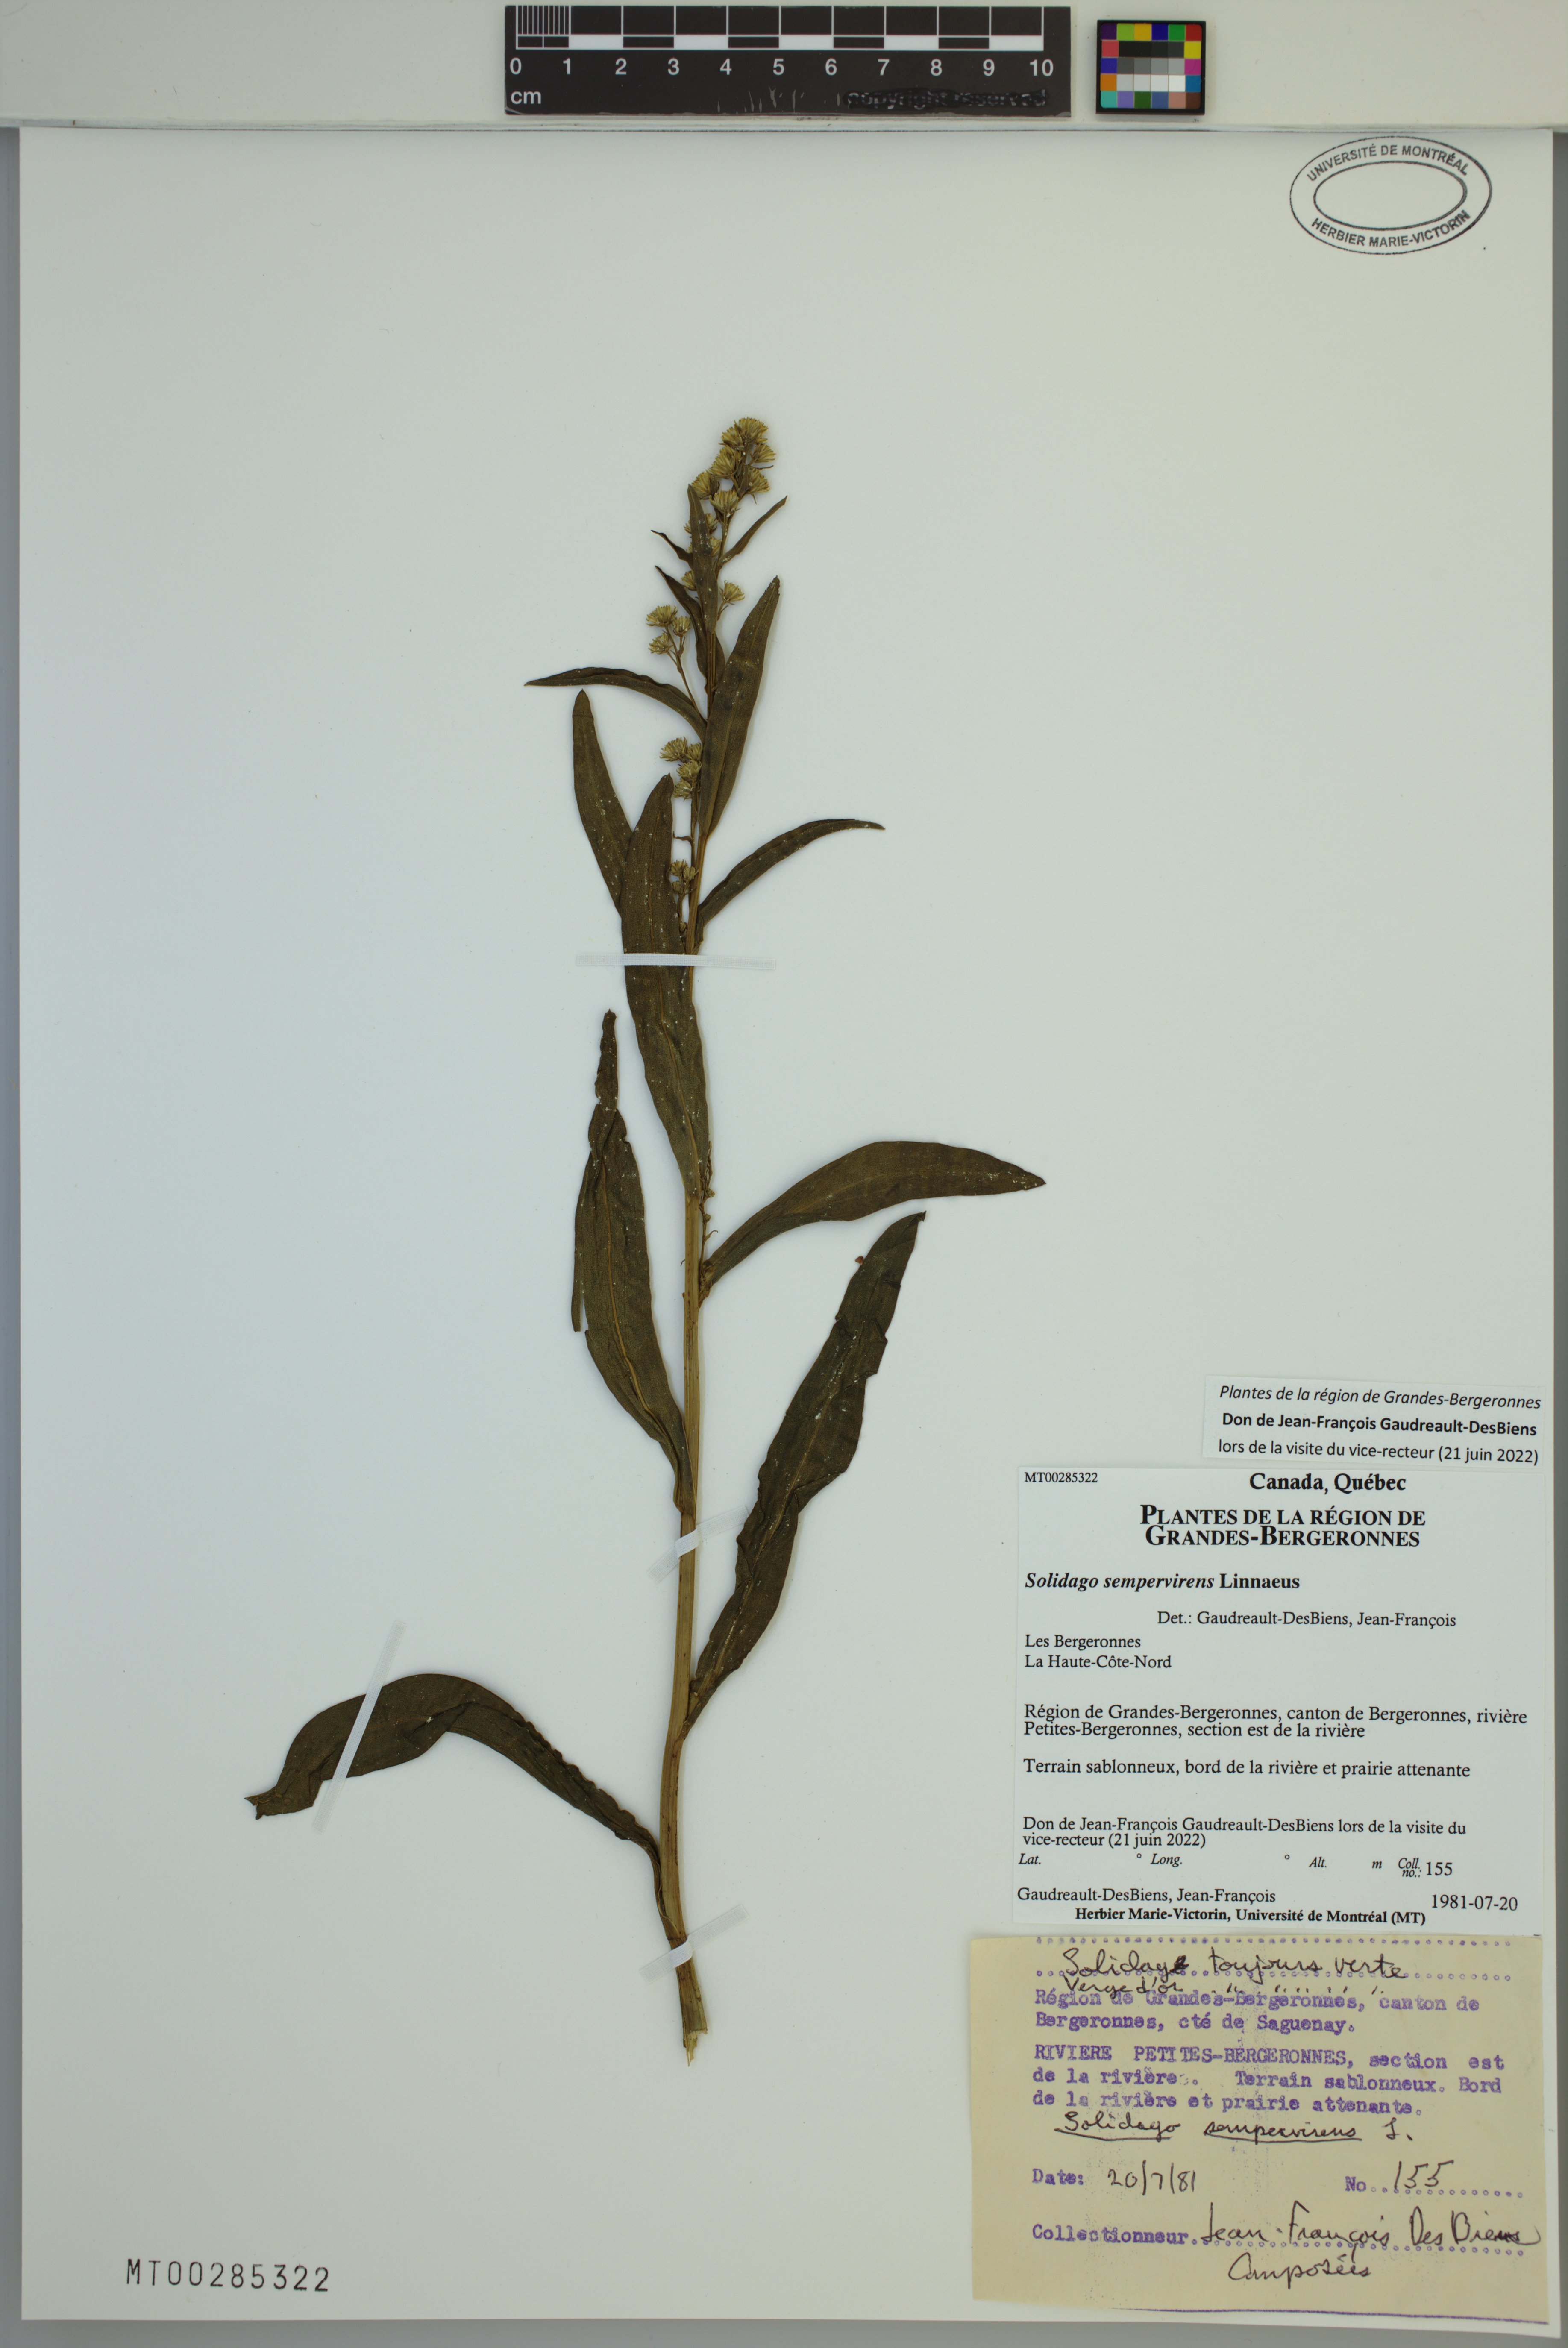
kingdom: Plantae
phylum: Tracheophyta
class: Magnoliopsida
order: Asterales
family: Asteraceae
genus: Solidago
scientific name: Solidago sempervirens
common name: Salt-marsh goldenrod
